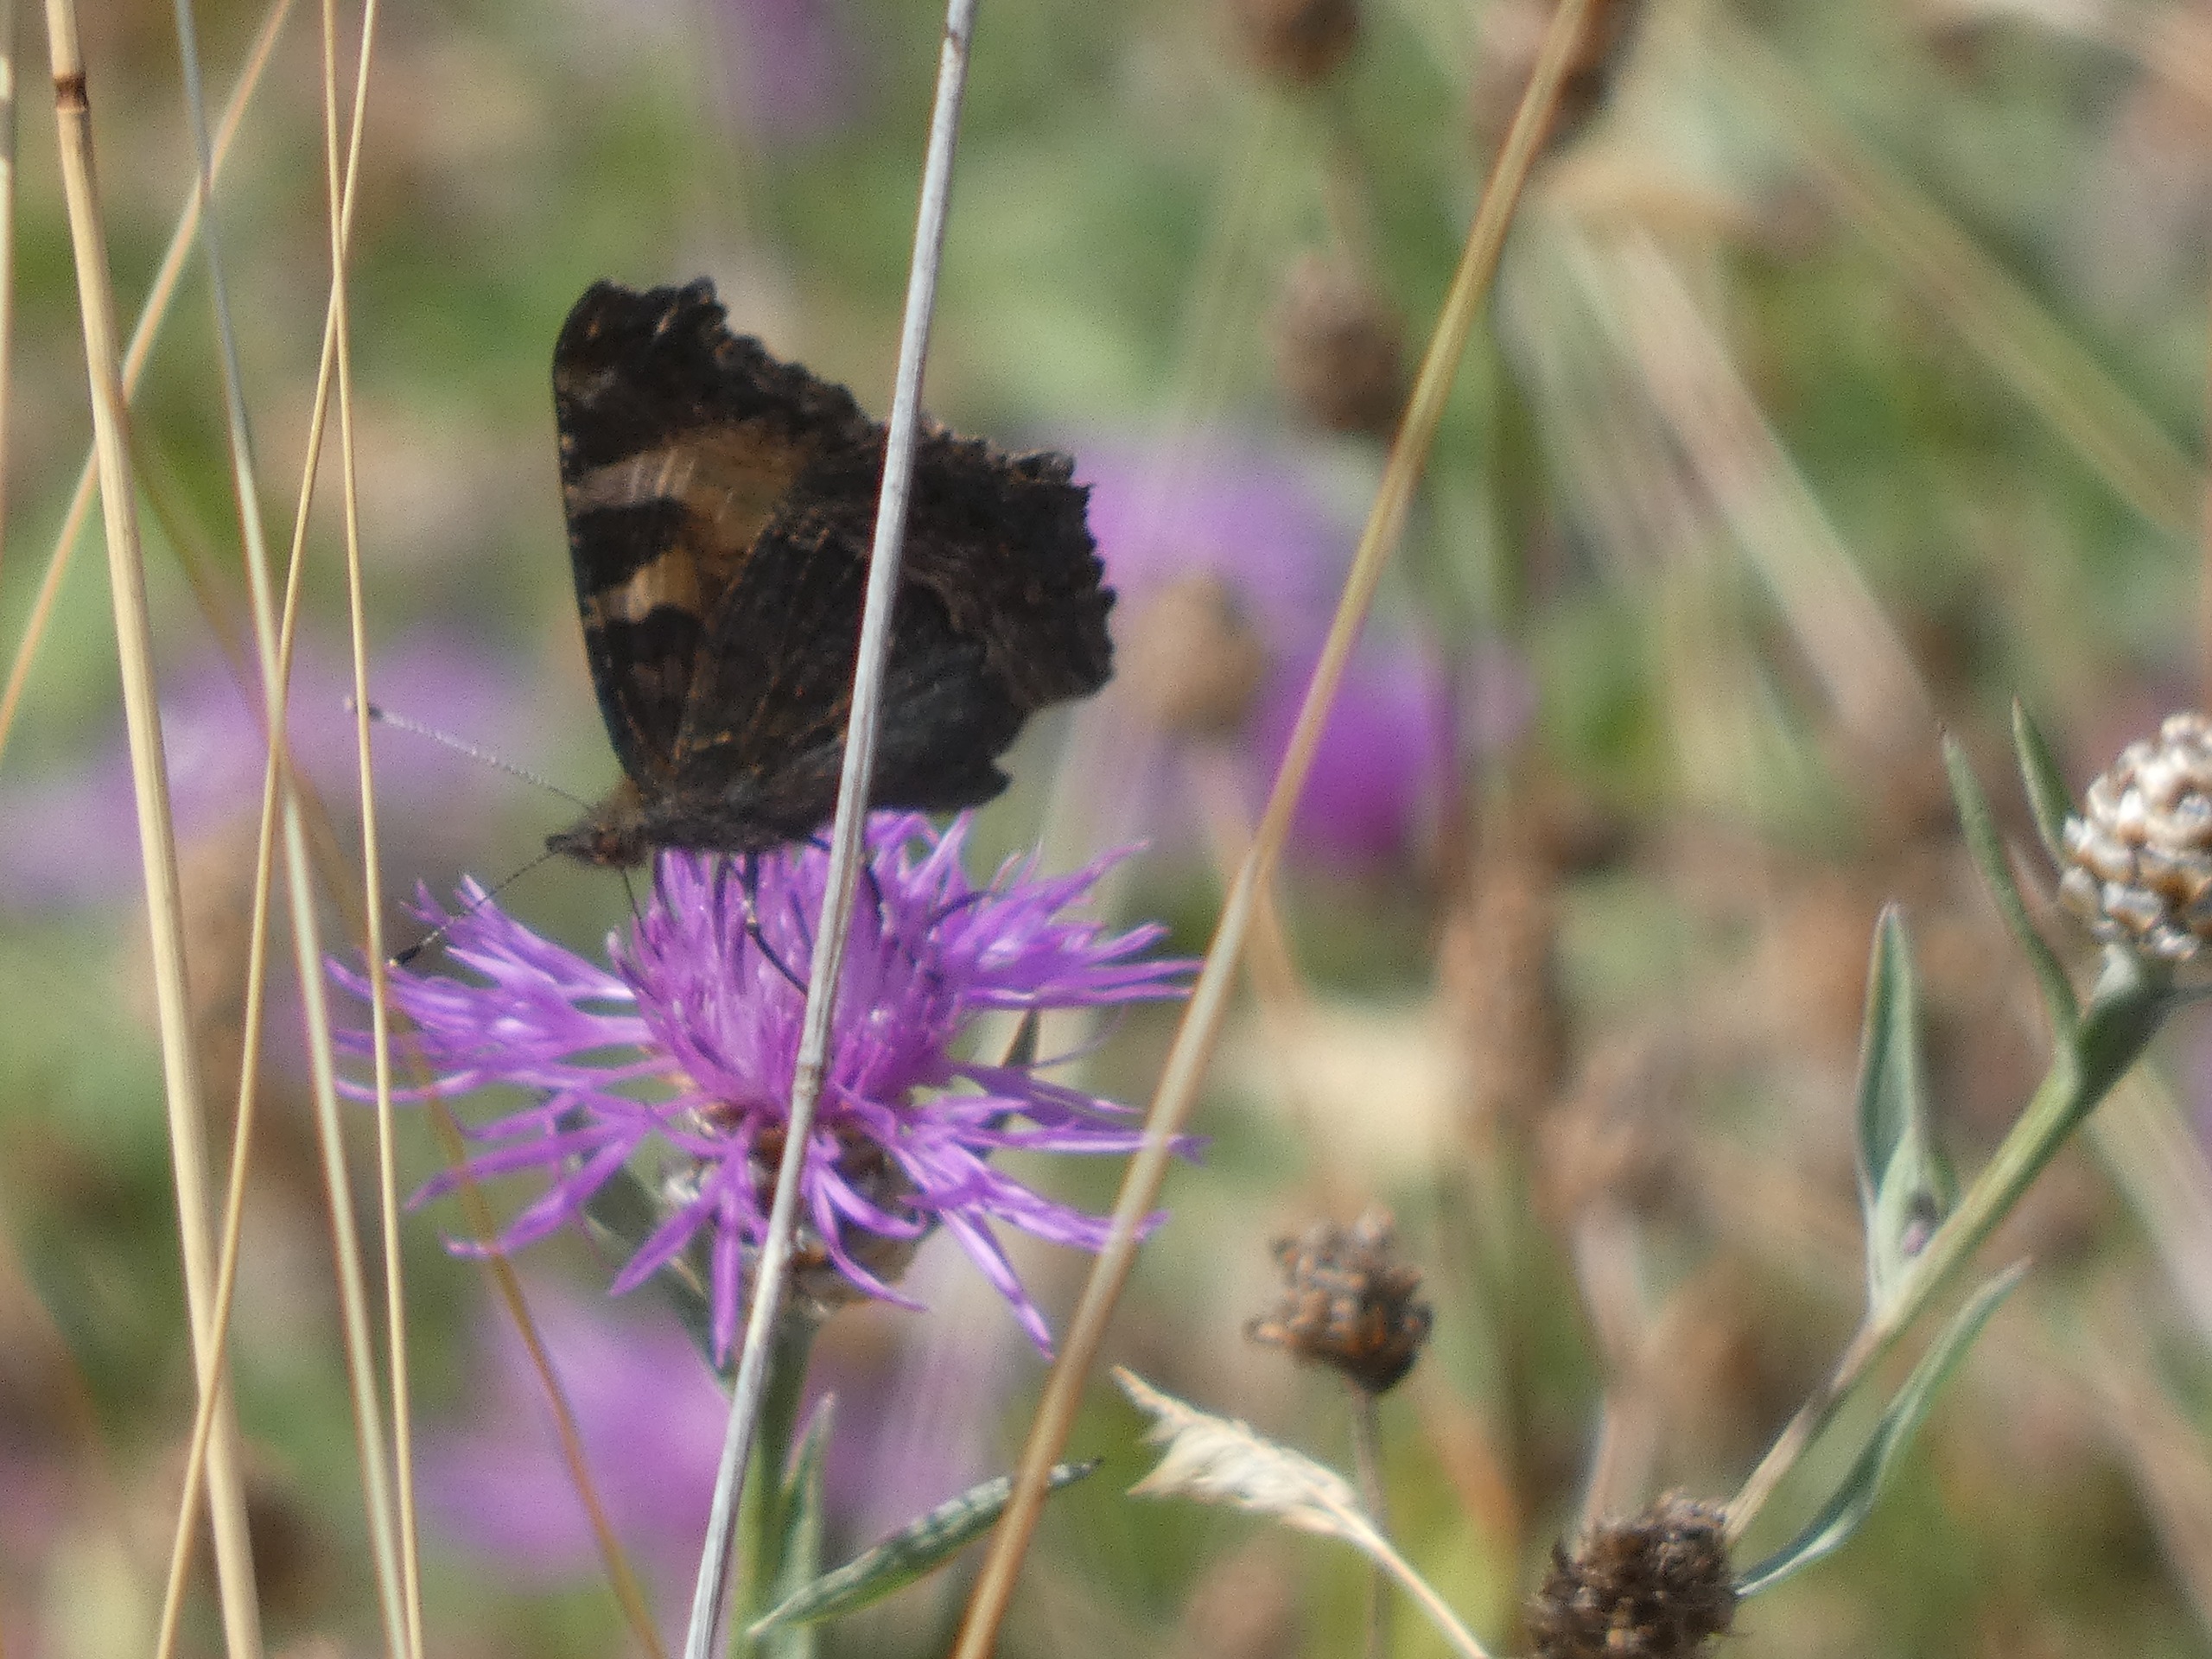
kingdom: Animalia
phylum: Arthropoda
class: Insecta
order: Lepidoptera
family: Nymphalidae
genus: Aglais
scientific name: Aglais urticae
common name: Nældens takvinge
